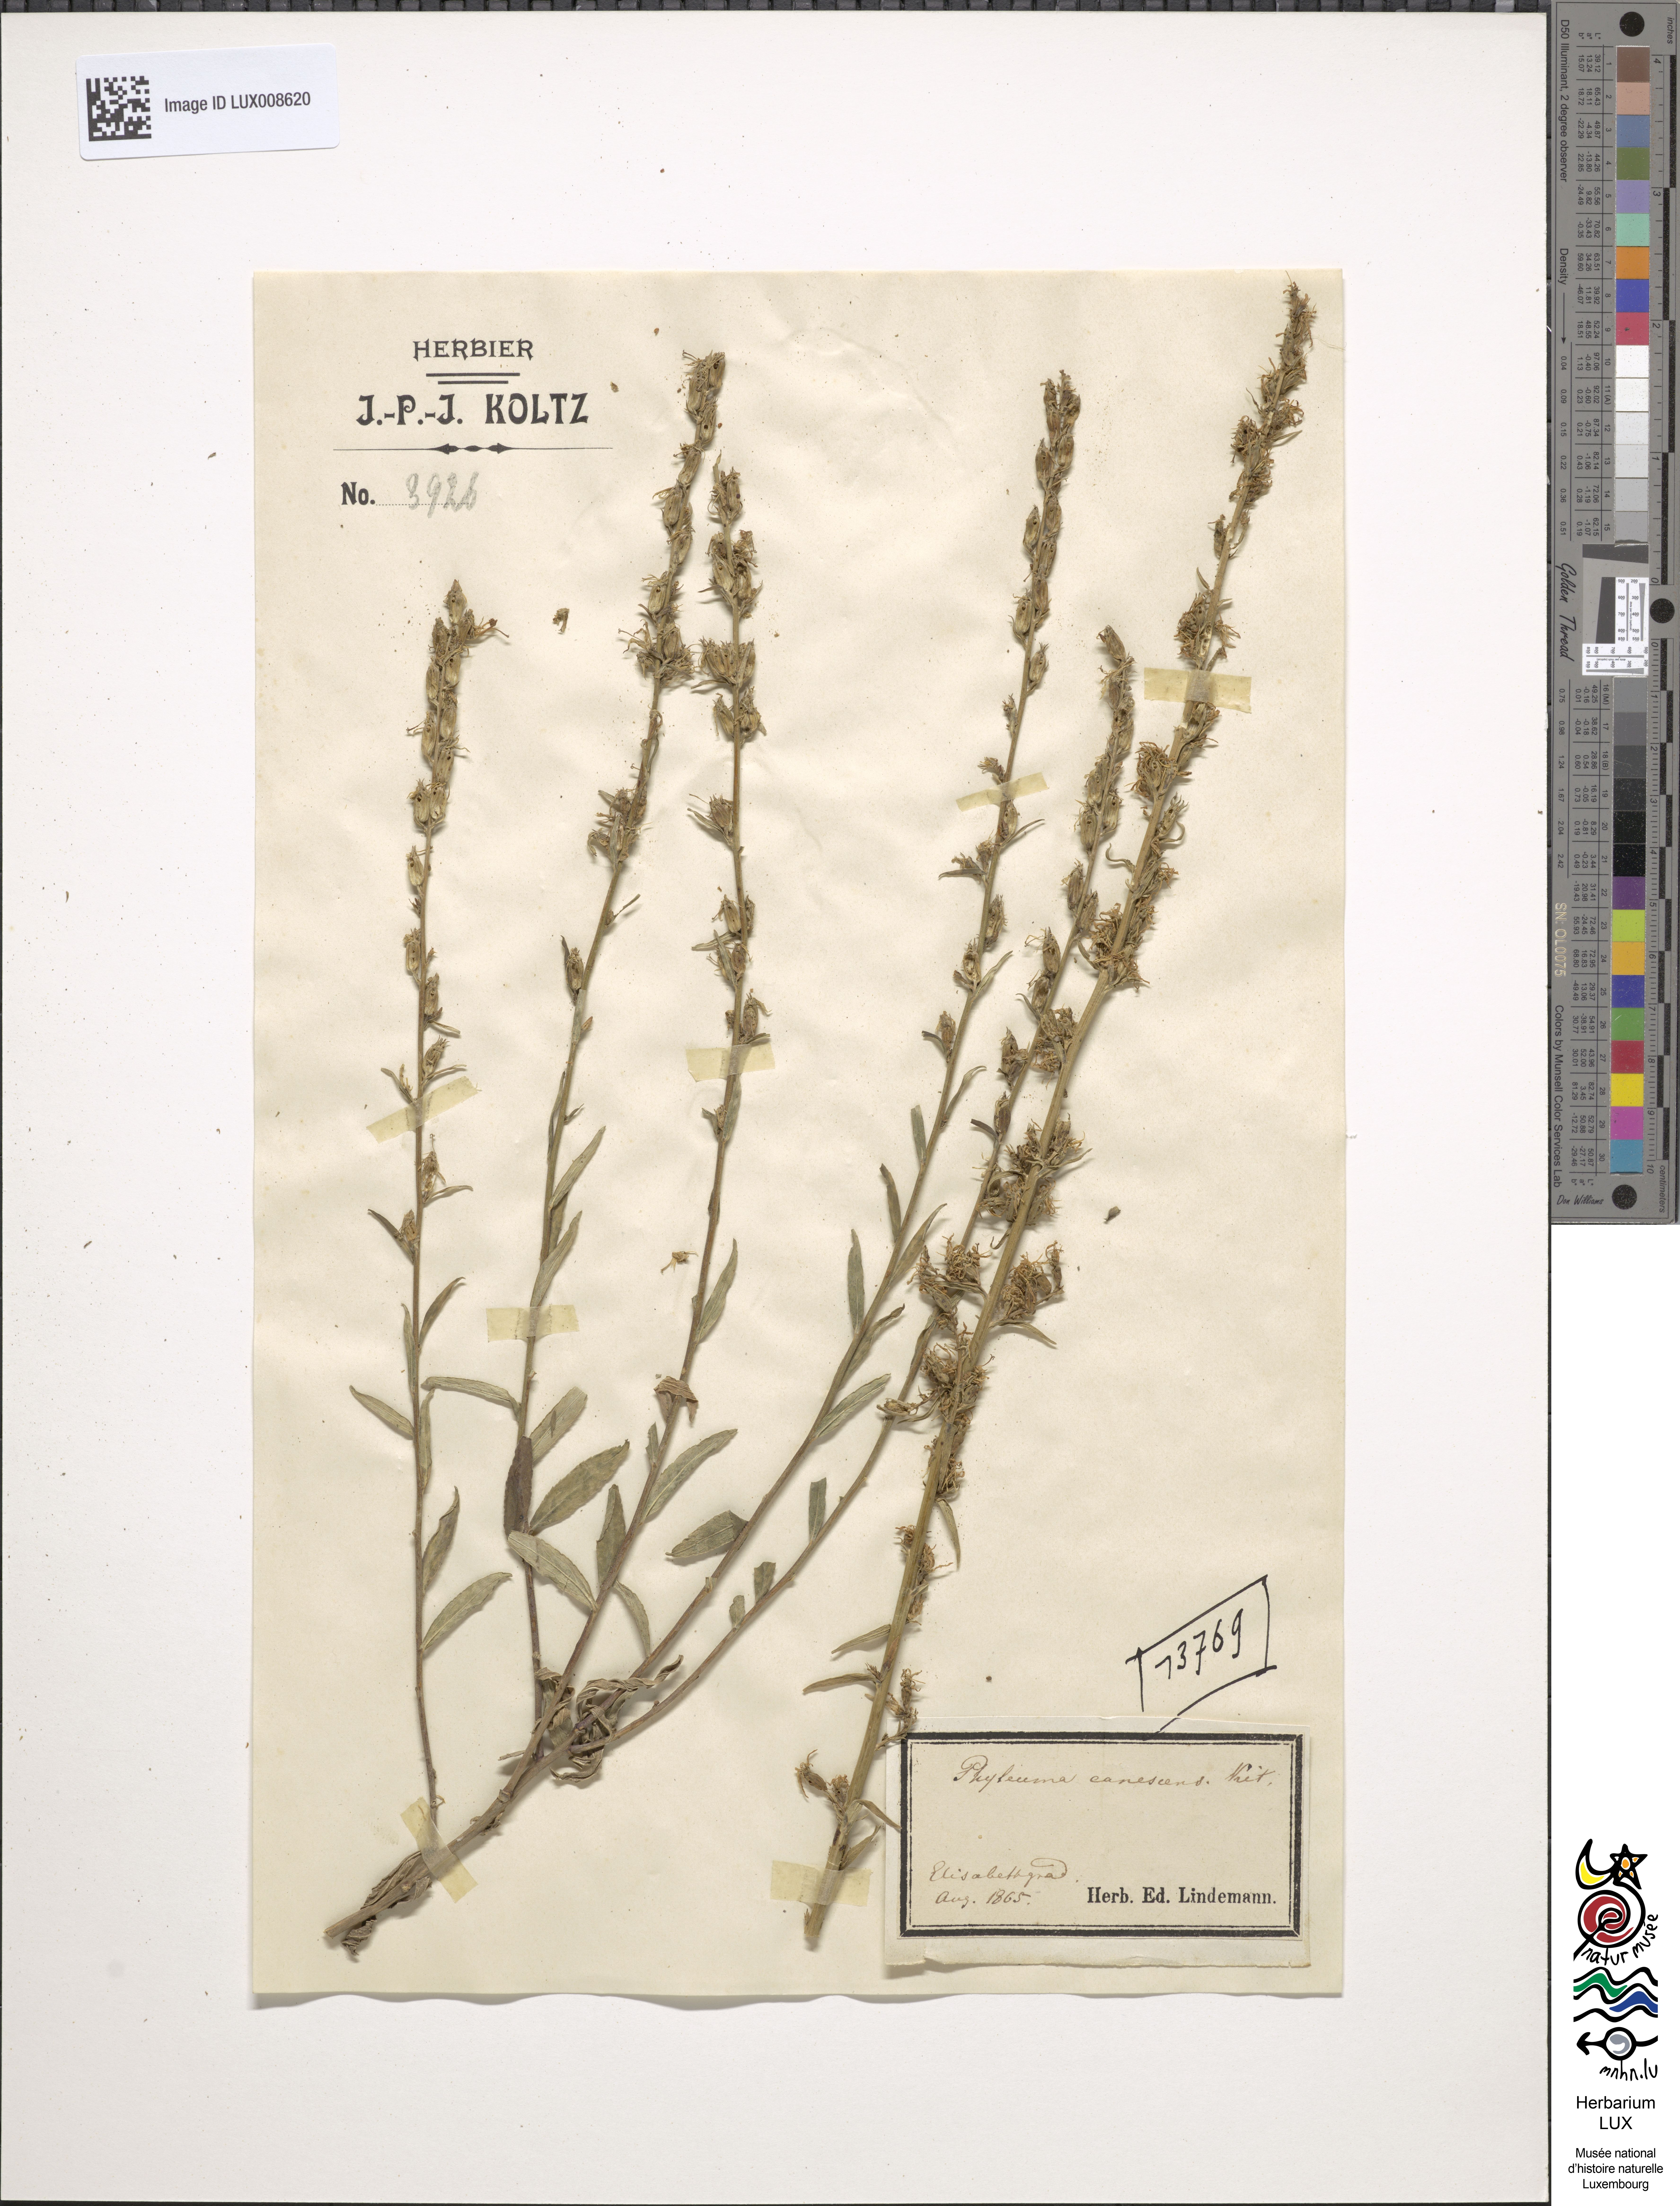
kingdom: Plantae
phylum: Tracheophyta
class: Magnoliopsida
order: Asterales
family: Campanulaceae
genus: Asyneuma
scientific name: Asyneuma canescens
